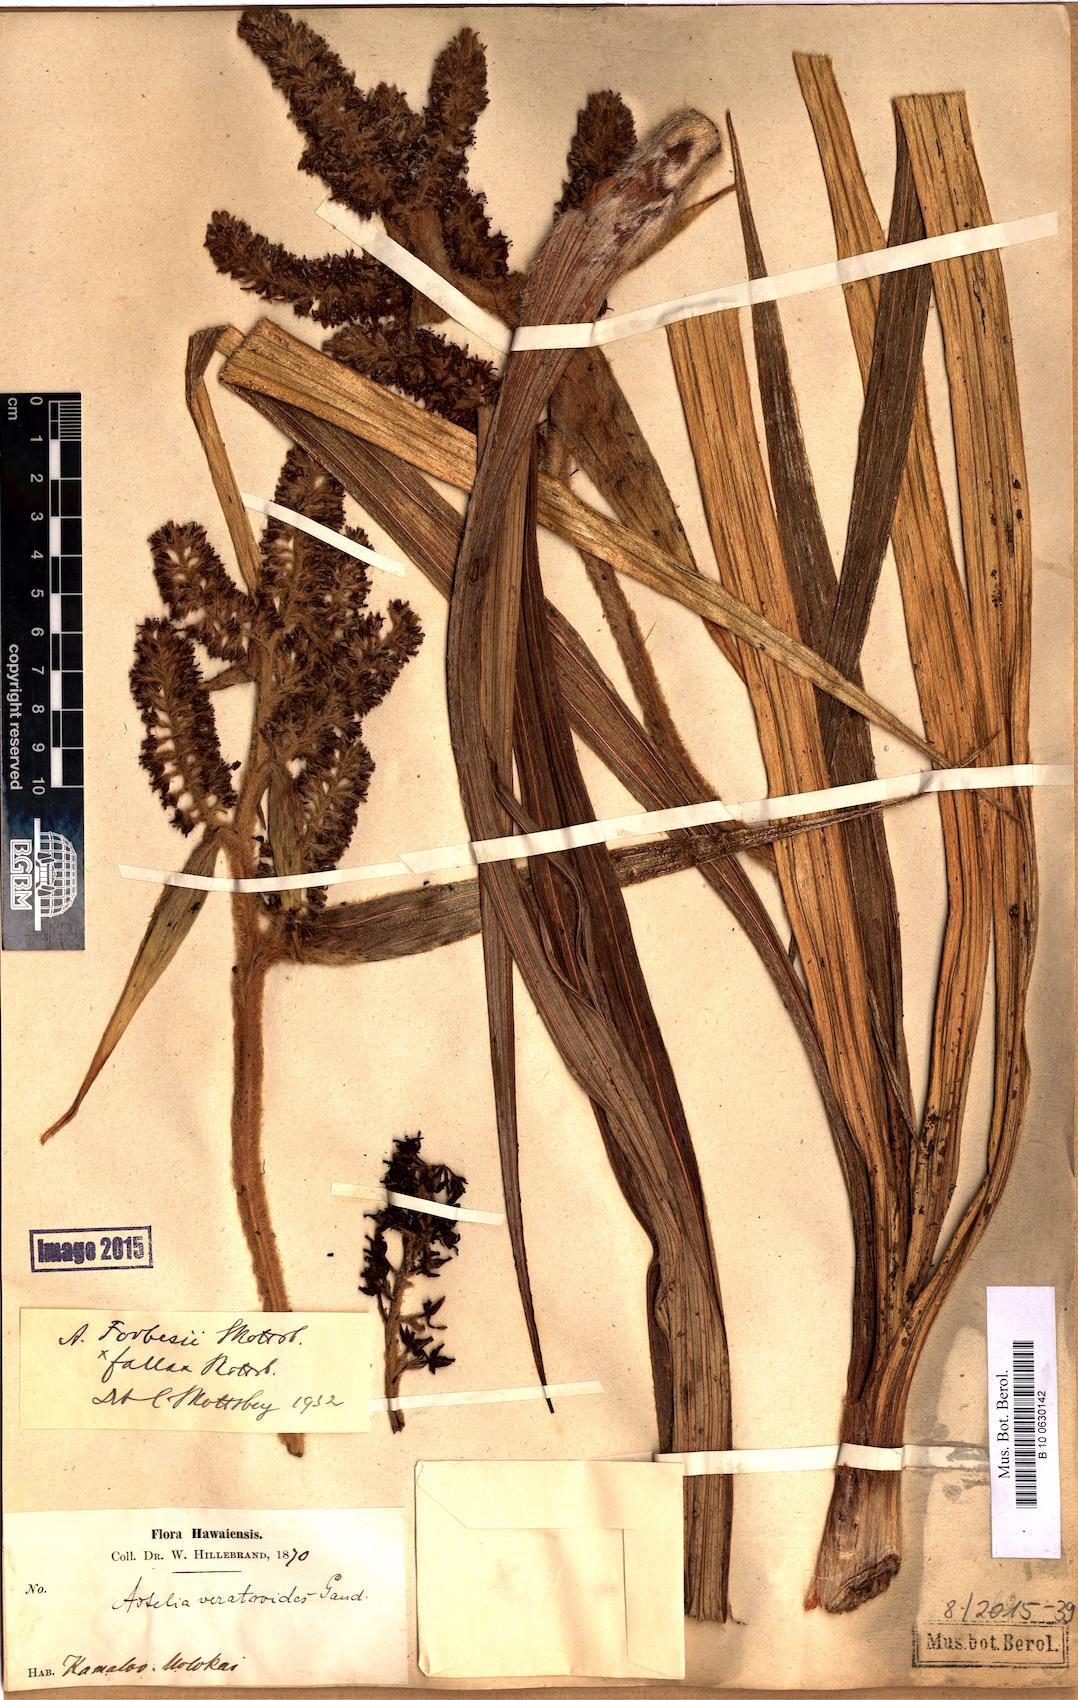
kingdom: Plantae
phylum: Tracheophyta
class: Liliopsida
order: Asparagales
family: Asteliaceae
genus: Astelia
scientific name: Astelia menziesiana
